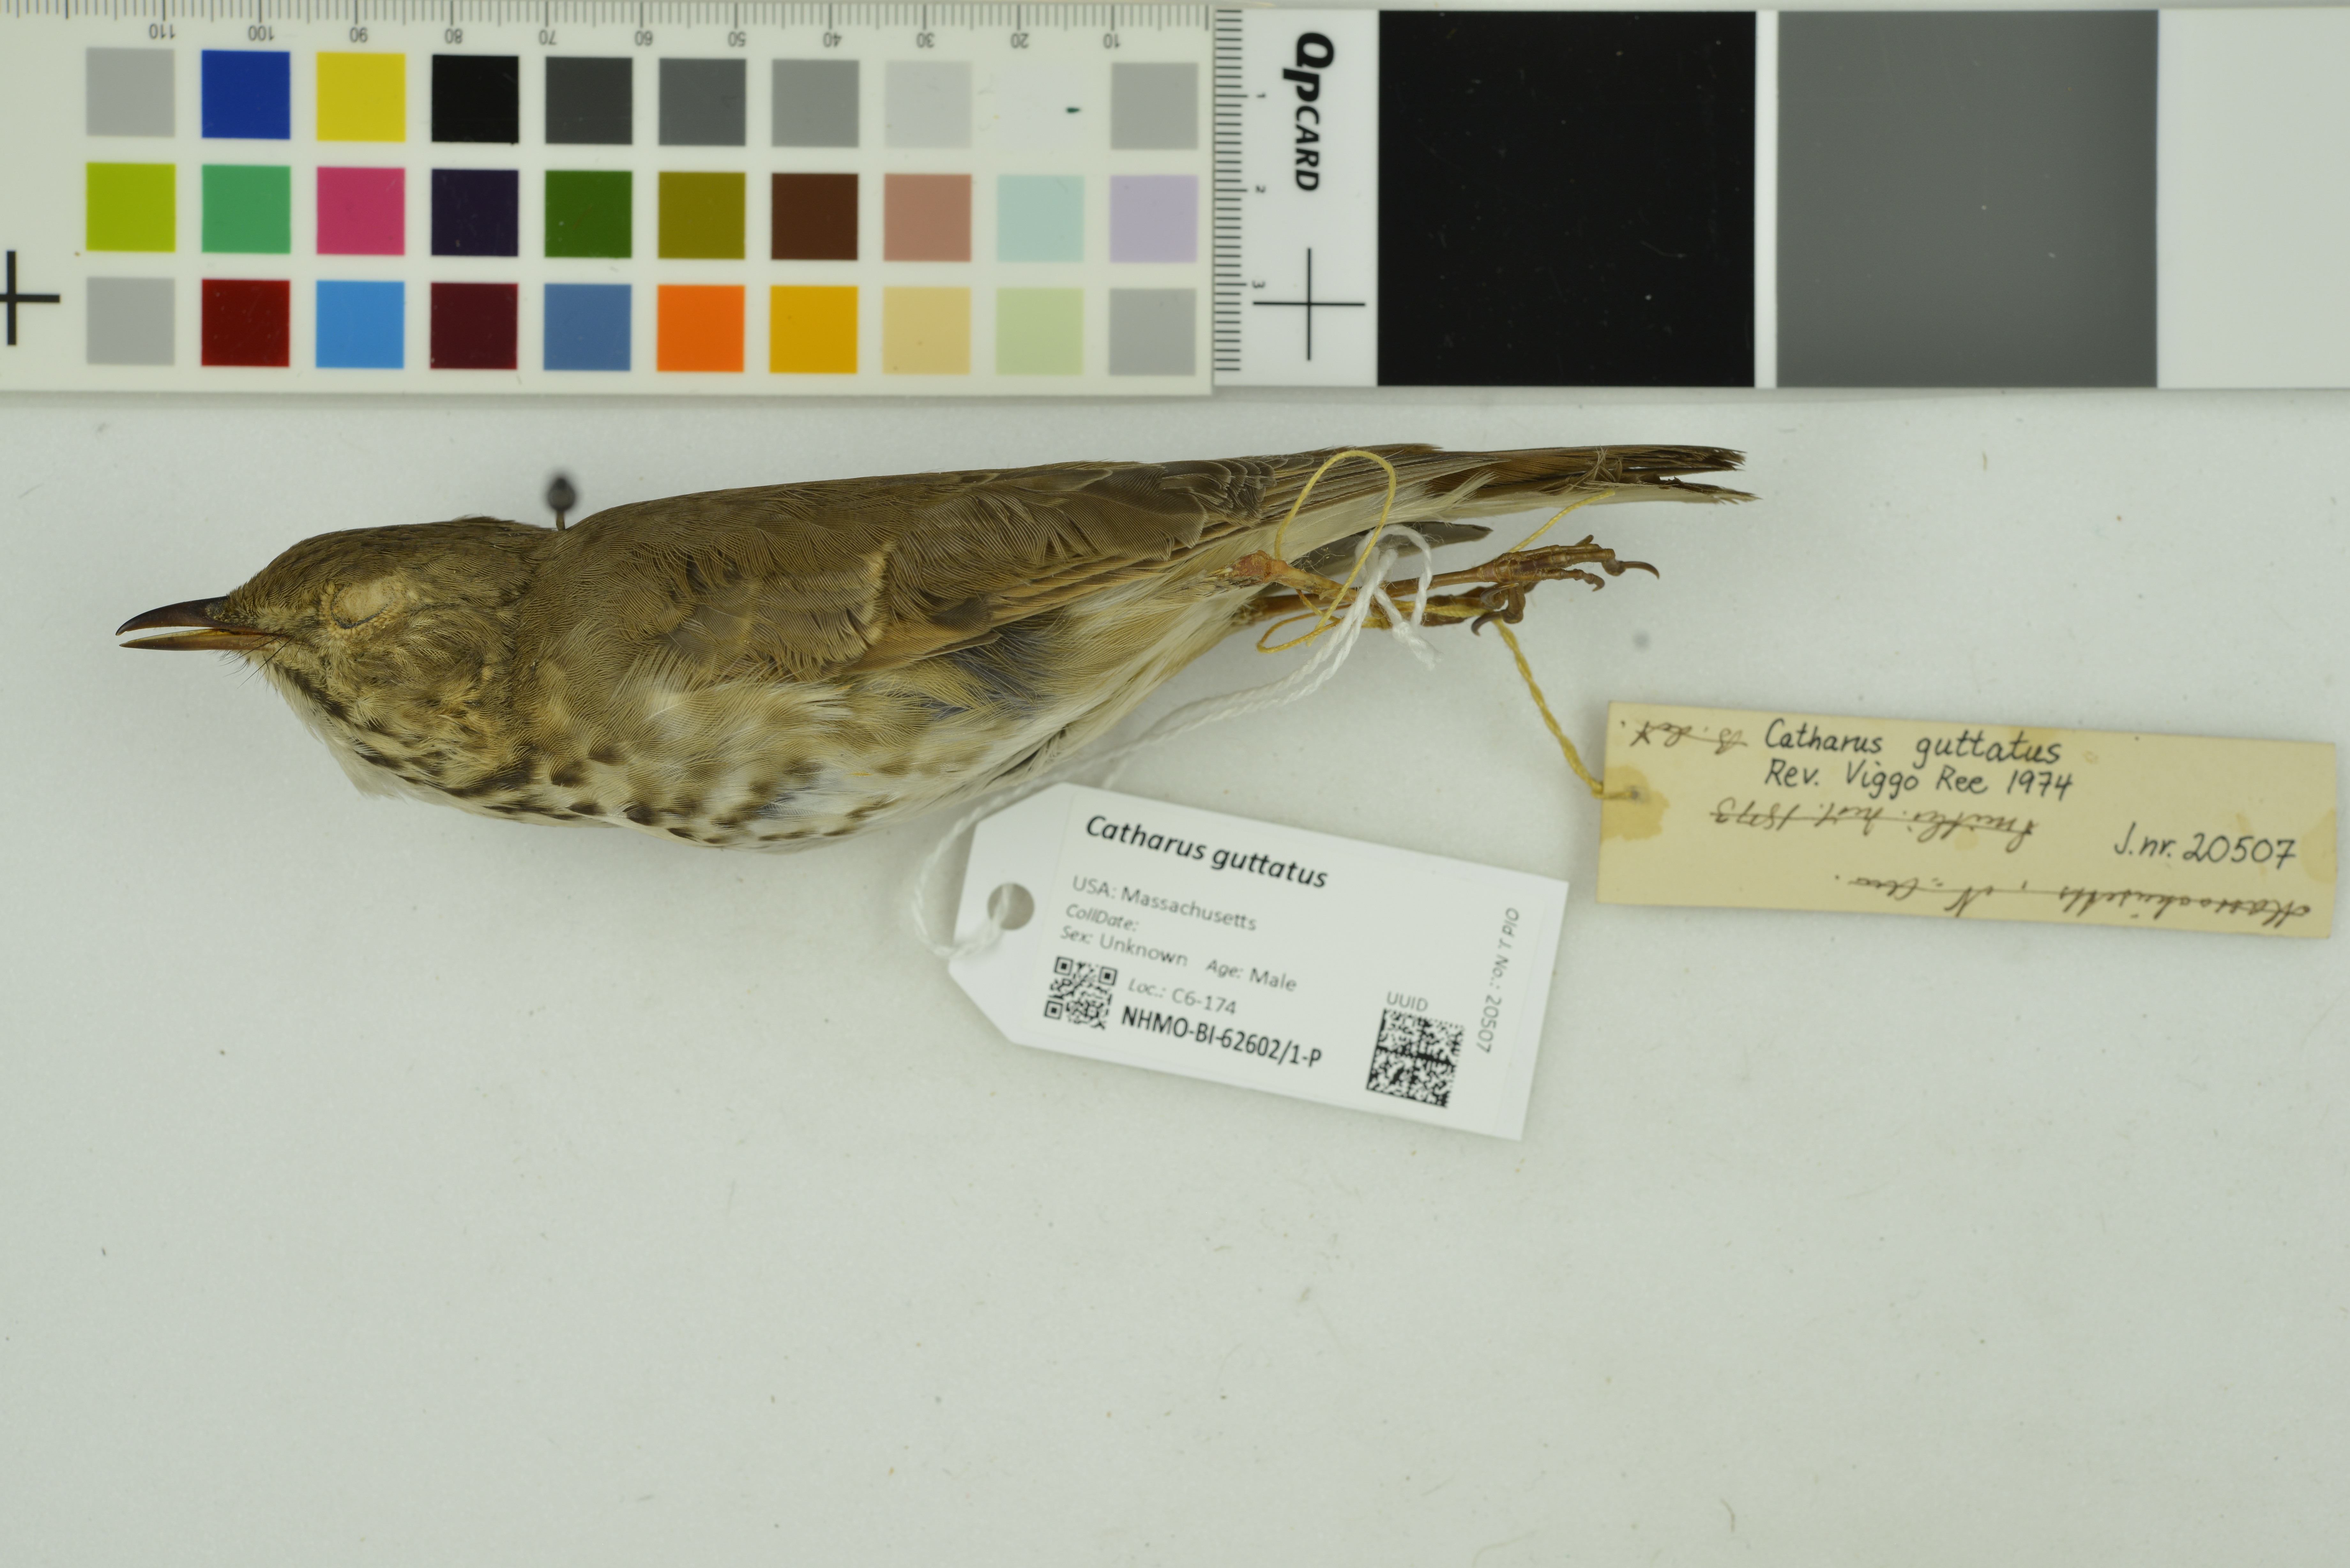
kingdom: Animalia
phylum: Chordata
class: Aves
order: Passeriformes
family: Turdidae
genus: Catharus
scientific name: Catharus guttatus
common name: Hermit thrush
